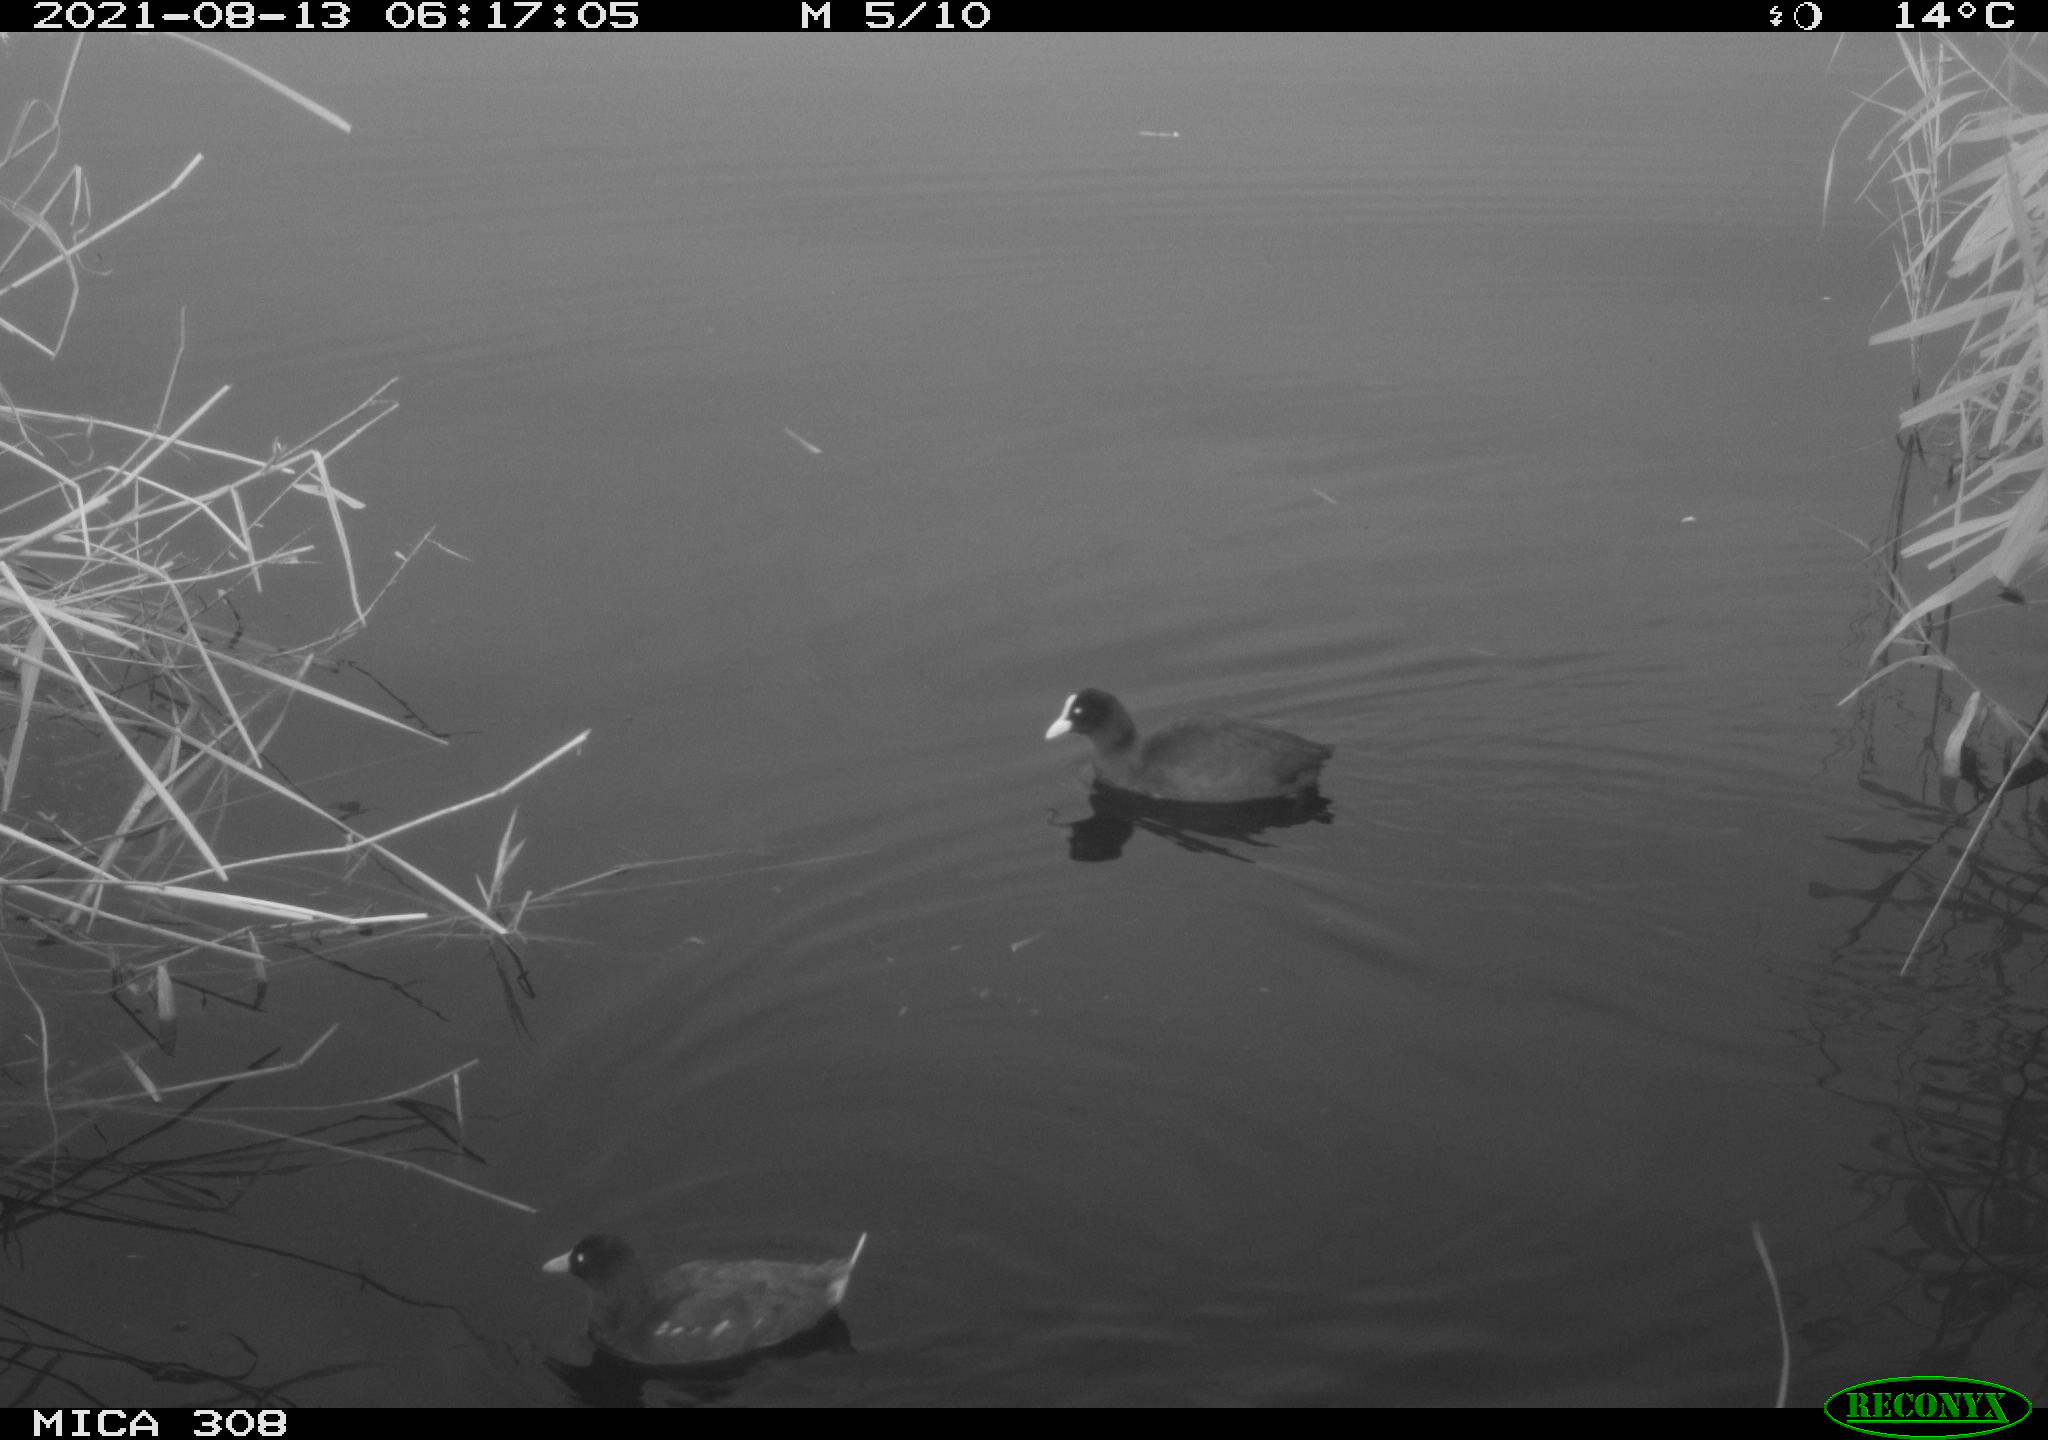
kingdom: Animalia
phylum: Chordata
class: Aves
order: Gruiformes
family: Rallidae
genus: Fulica
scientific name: Fulica atra
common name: Eurasian coot
